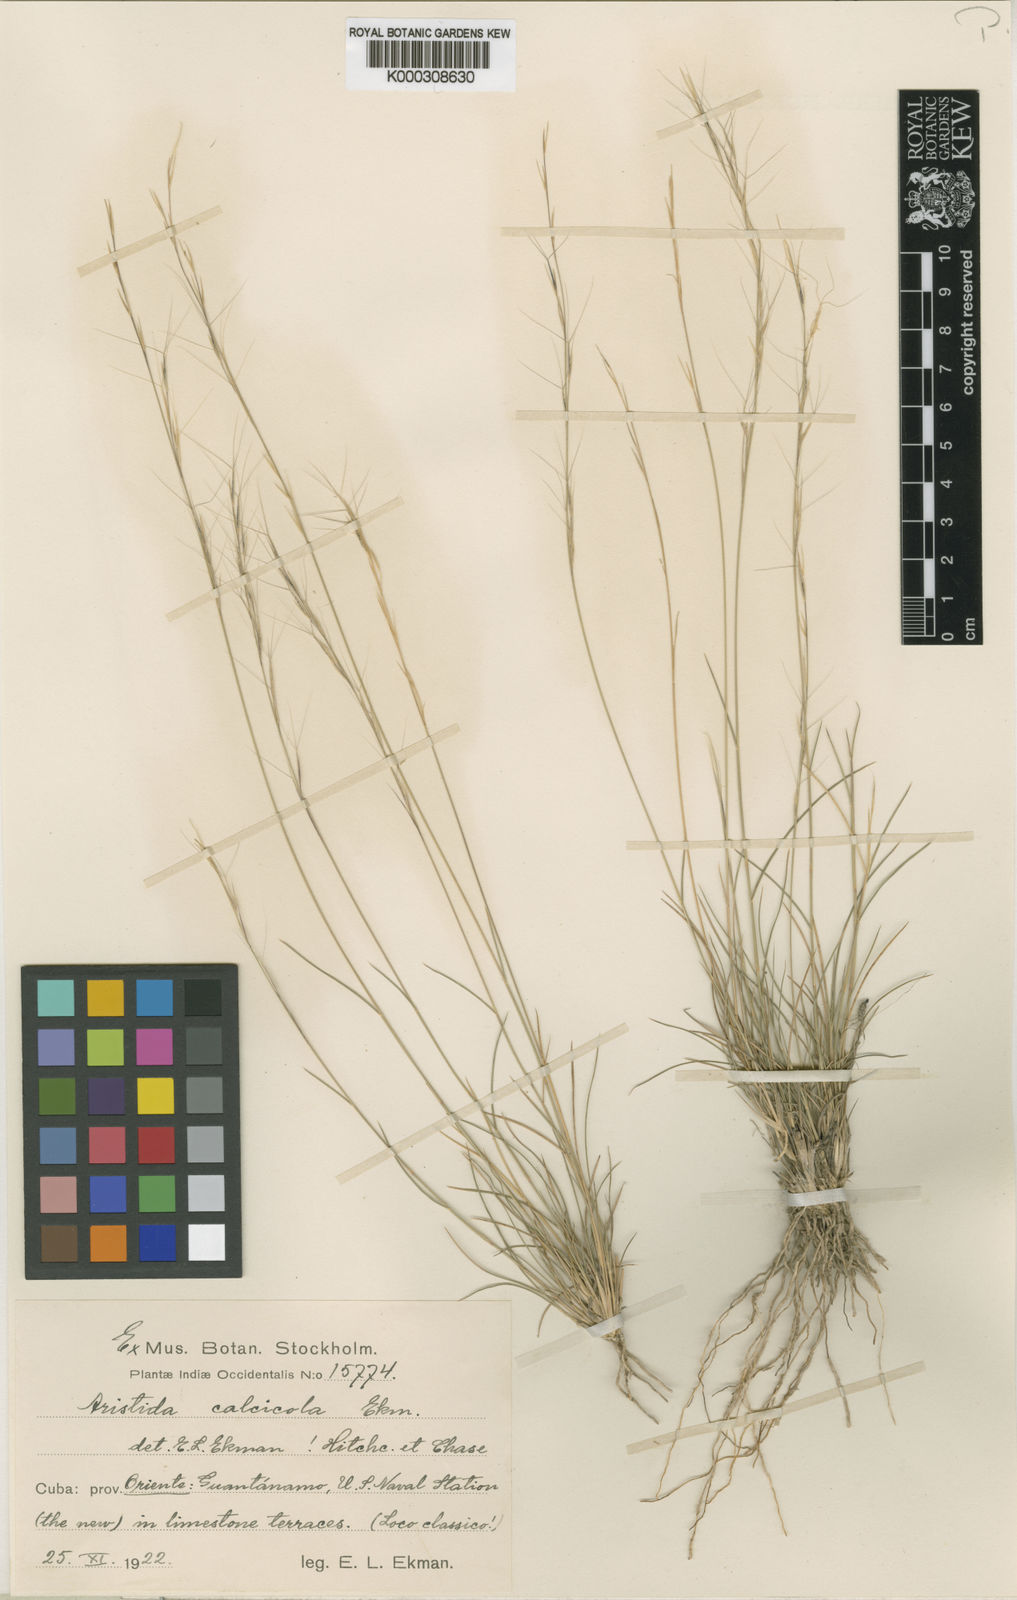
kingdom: Plantae
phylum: Tracheophyta
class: Liliopsida
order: Poales
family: Poaceae
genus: Aristida
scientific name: Aristida calcicola
